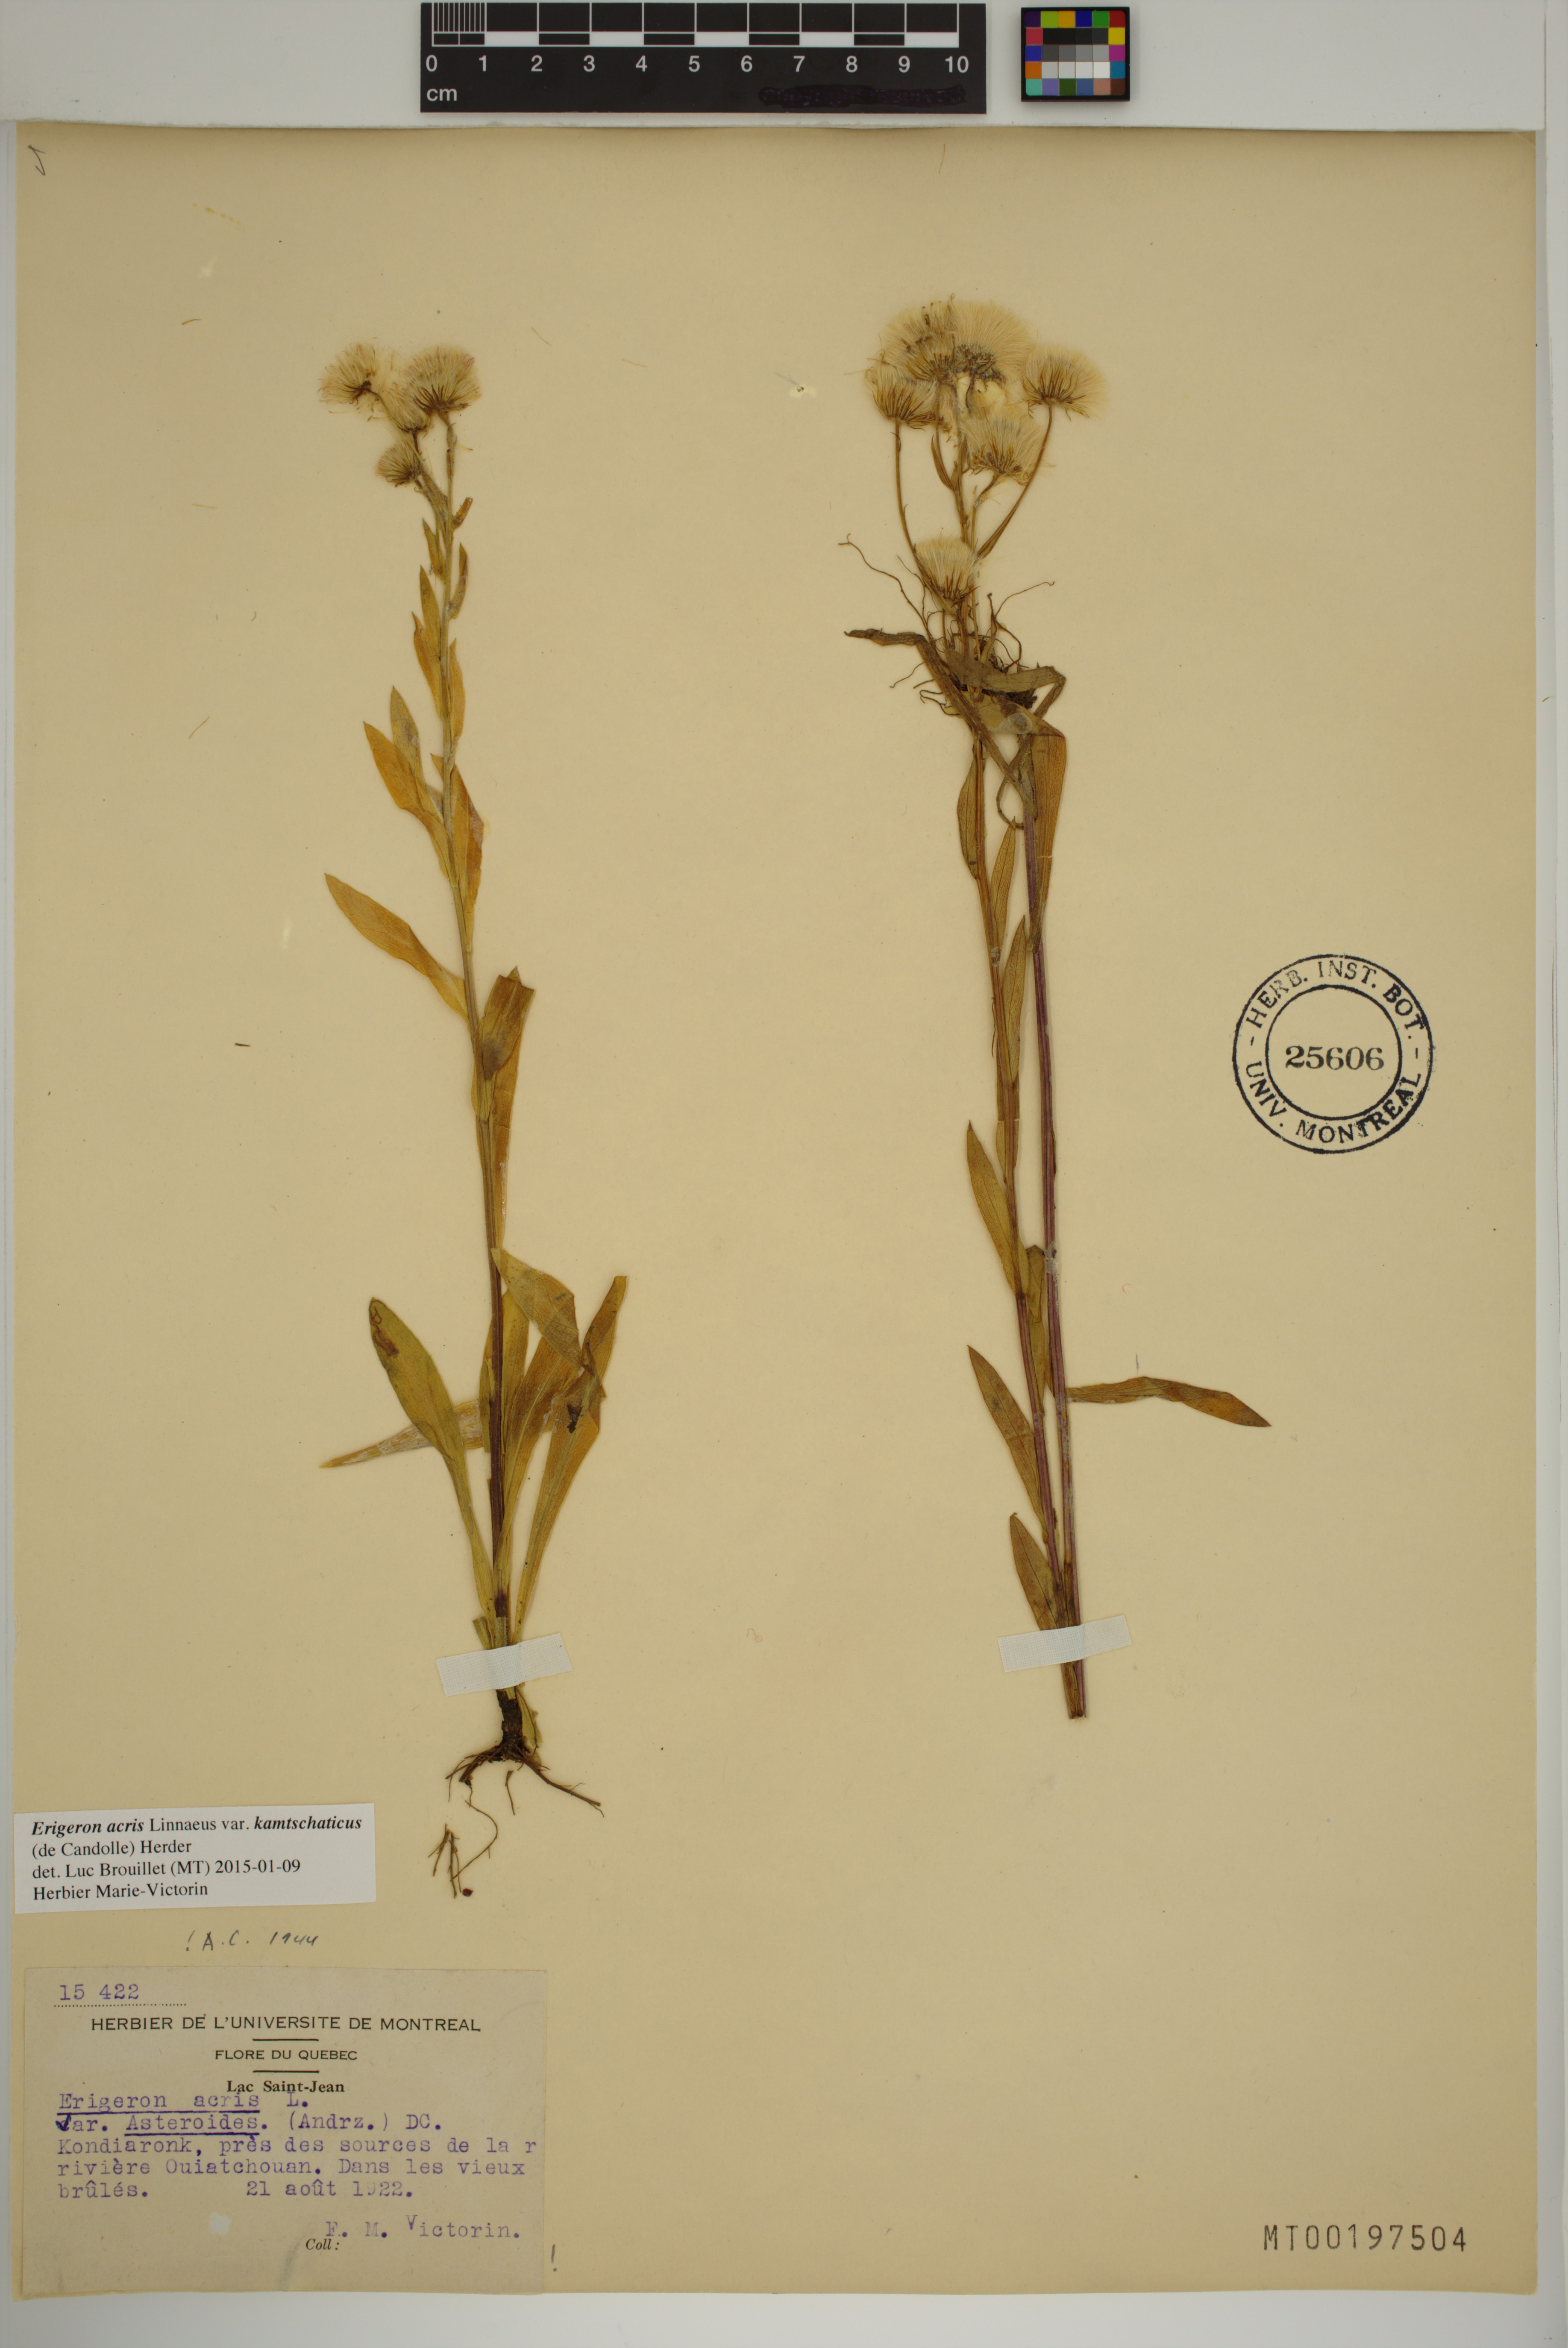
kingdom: Plantae
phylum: Tracheophyta
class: Magnoliopsida
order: Asterales
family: Asteraceae
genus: Erigeron
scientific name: Erigeron kamtschaticus
